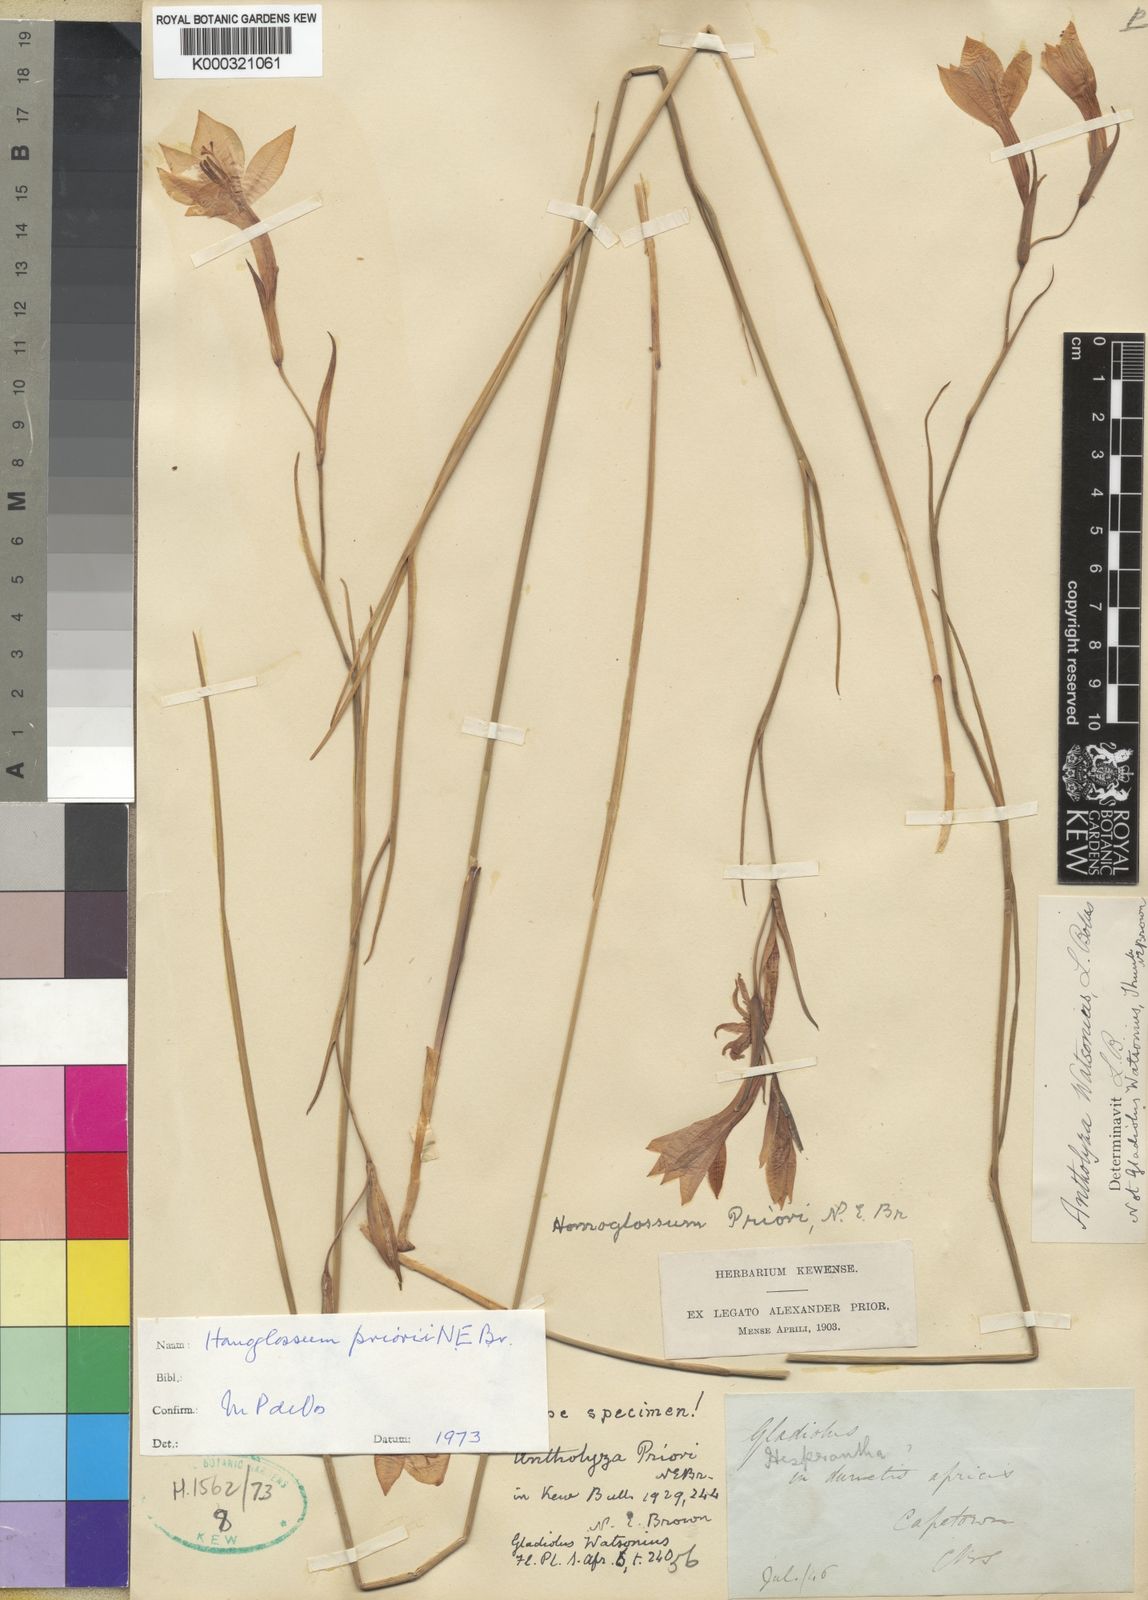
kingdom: Plantae
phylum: Tracheophyta
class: Liliopsida
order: Asparagales
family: Iridaceae
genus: Gladiolus
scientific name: Gladiolus priorii
